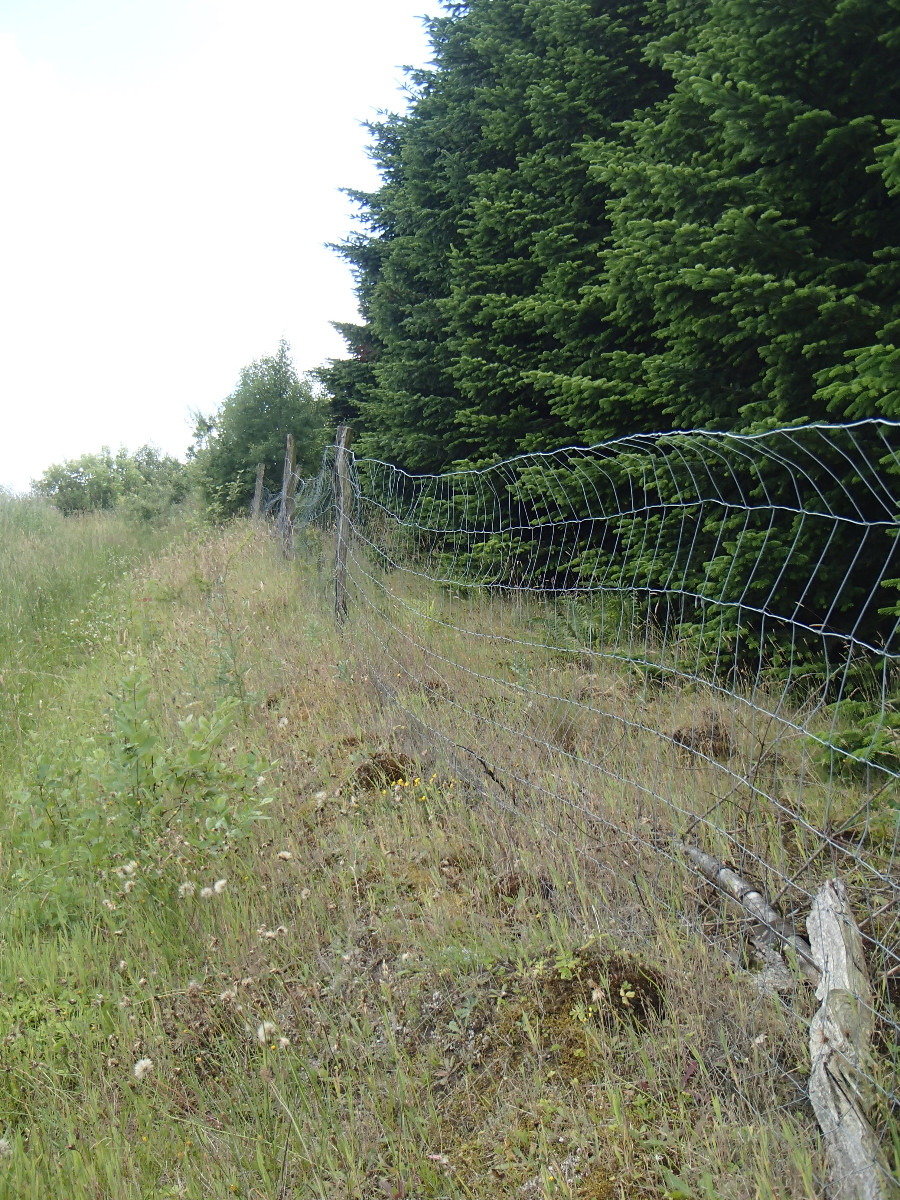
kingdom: Fungi
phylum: Ascomycota
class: Lecanoromycetes
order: Lecanorales
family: Cladoniaceae
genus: Cladonia
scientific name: Cladonia subulata
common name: spids bægerlav
